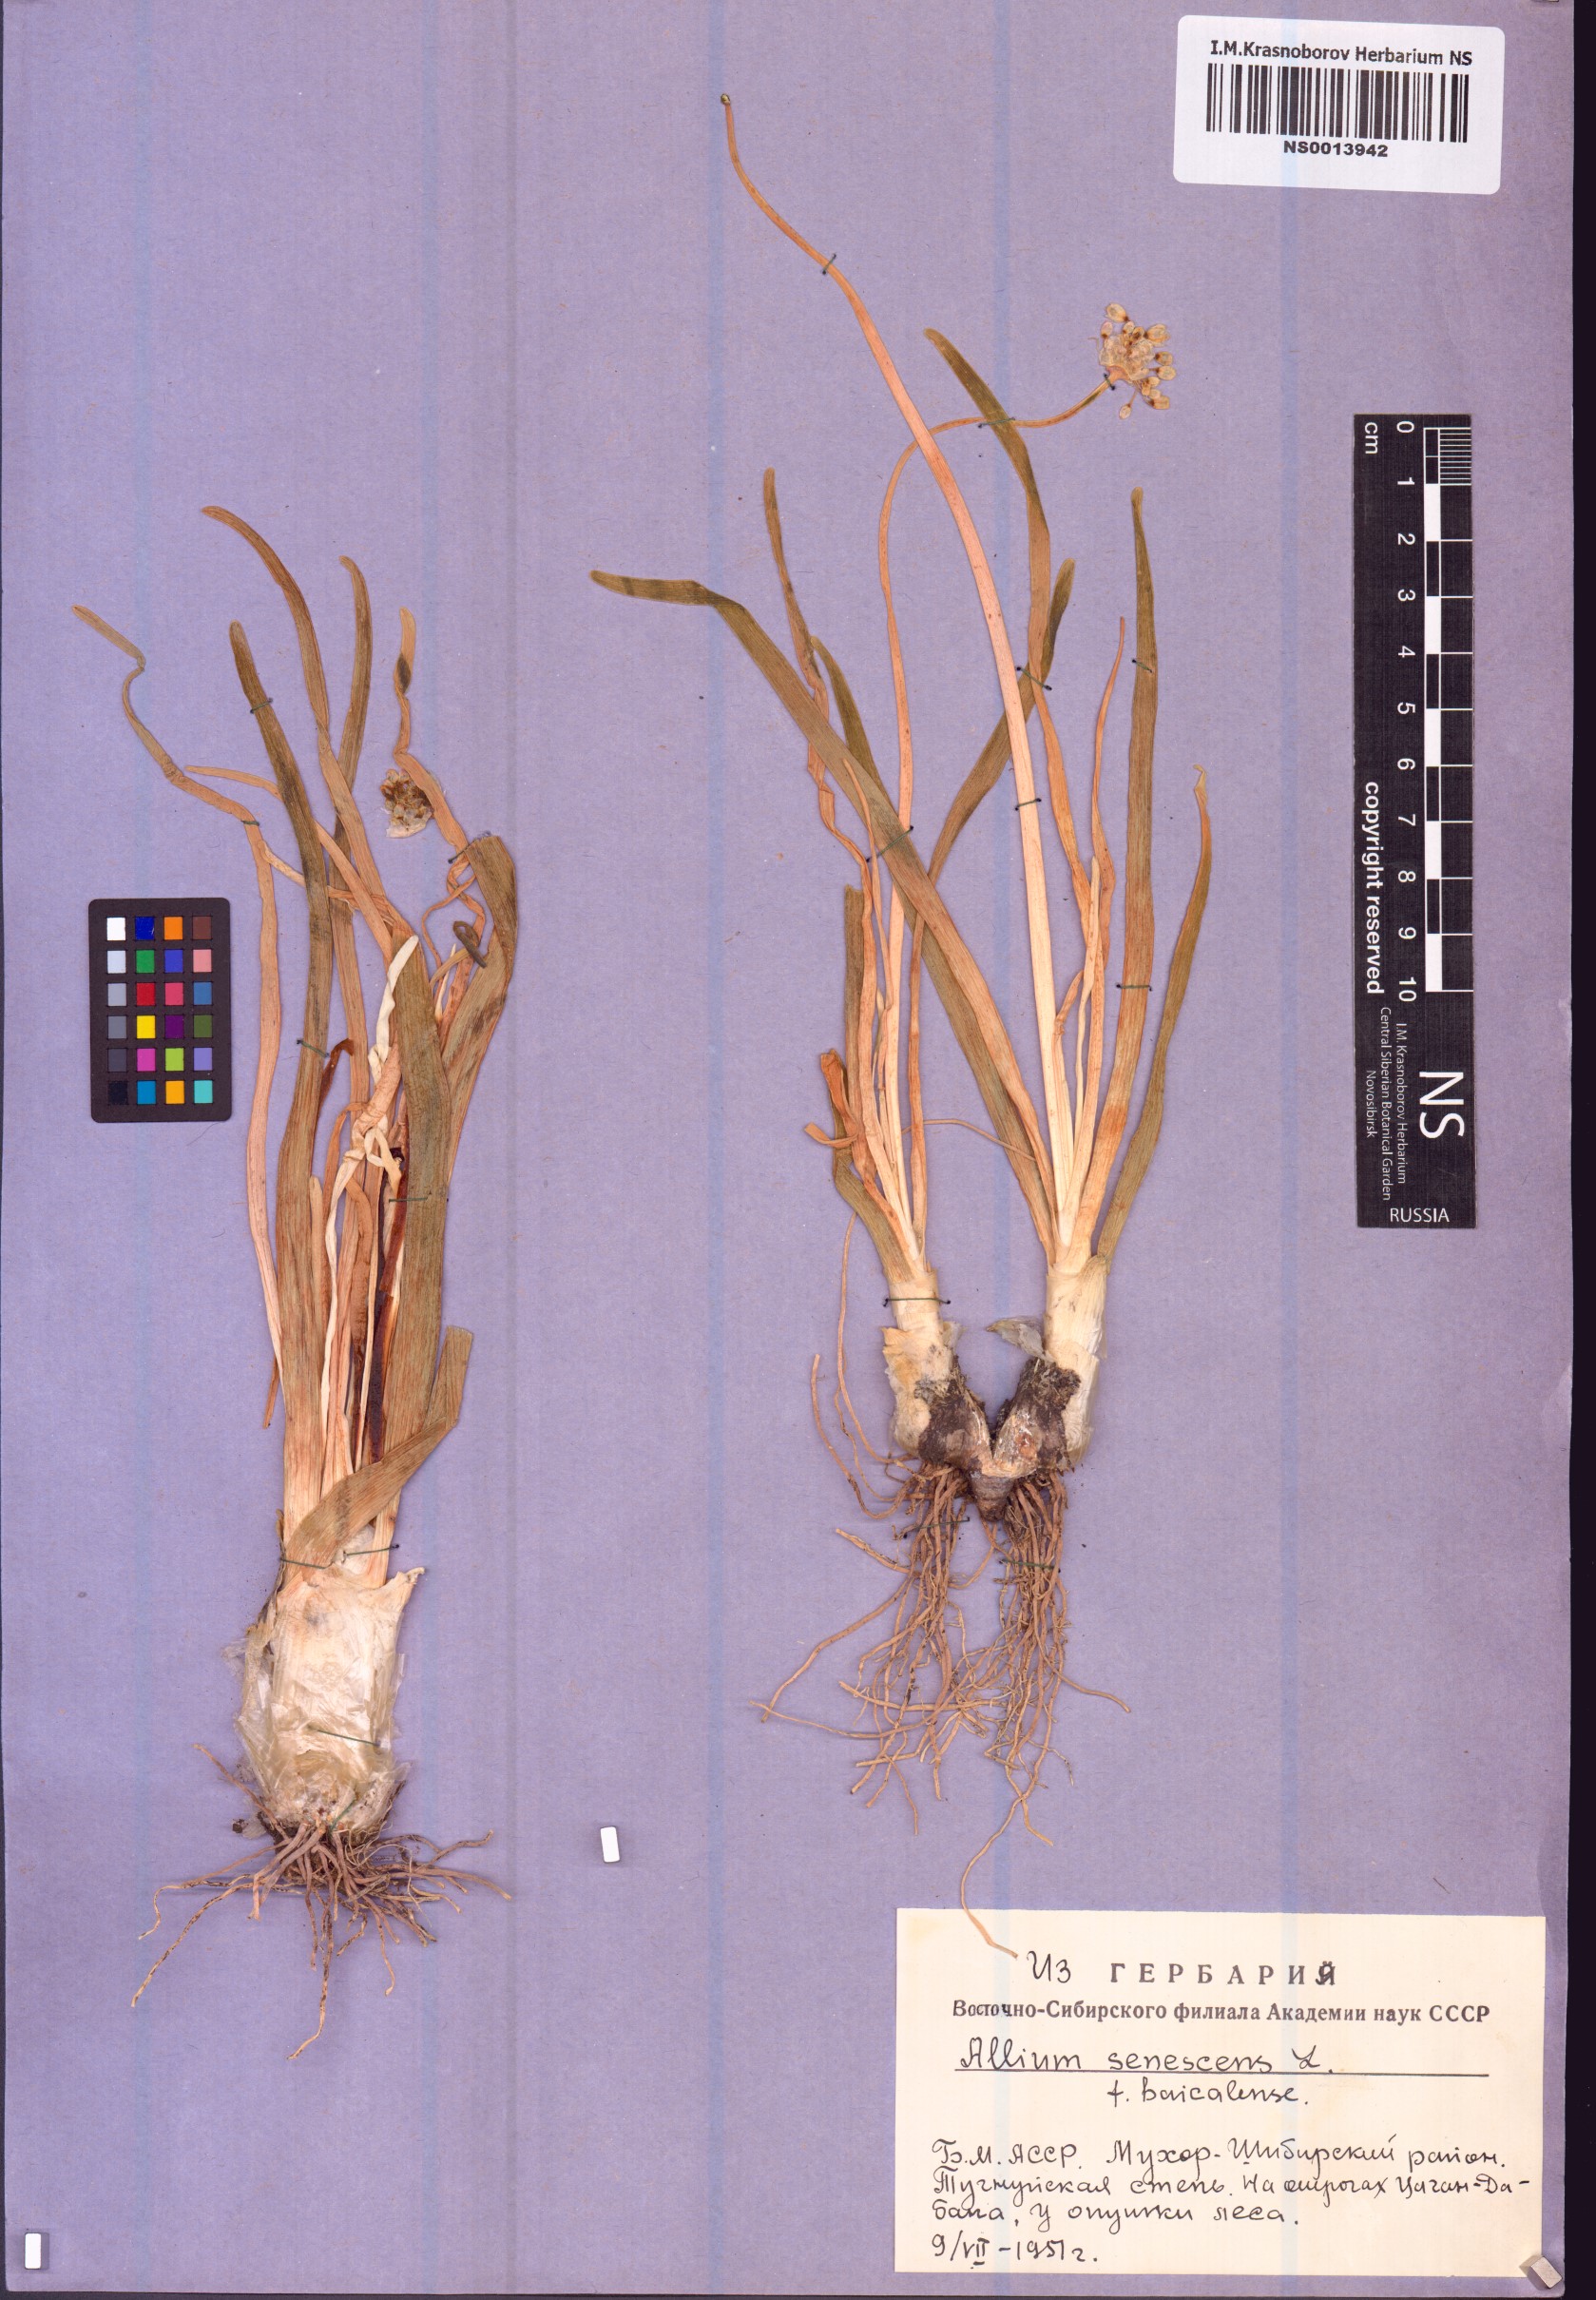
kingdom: Plantae
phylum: Tracheophyta
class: Liliopsida
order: Asparagales
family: Amaryllidaceae
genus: Allium
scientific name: Allium senescens
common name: German garlic
